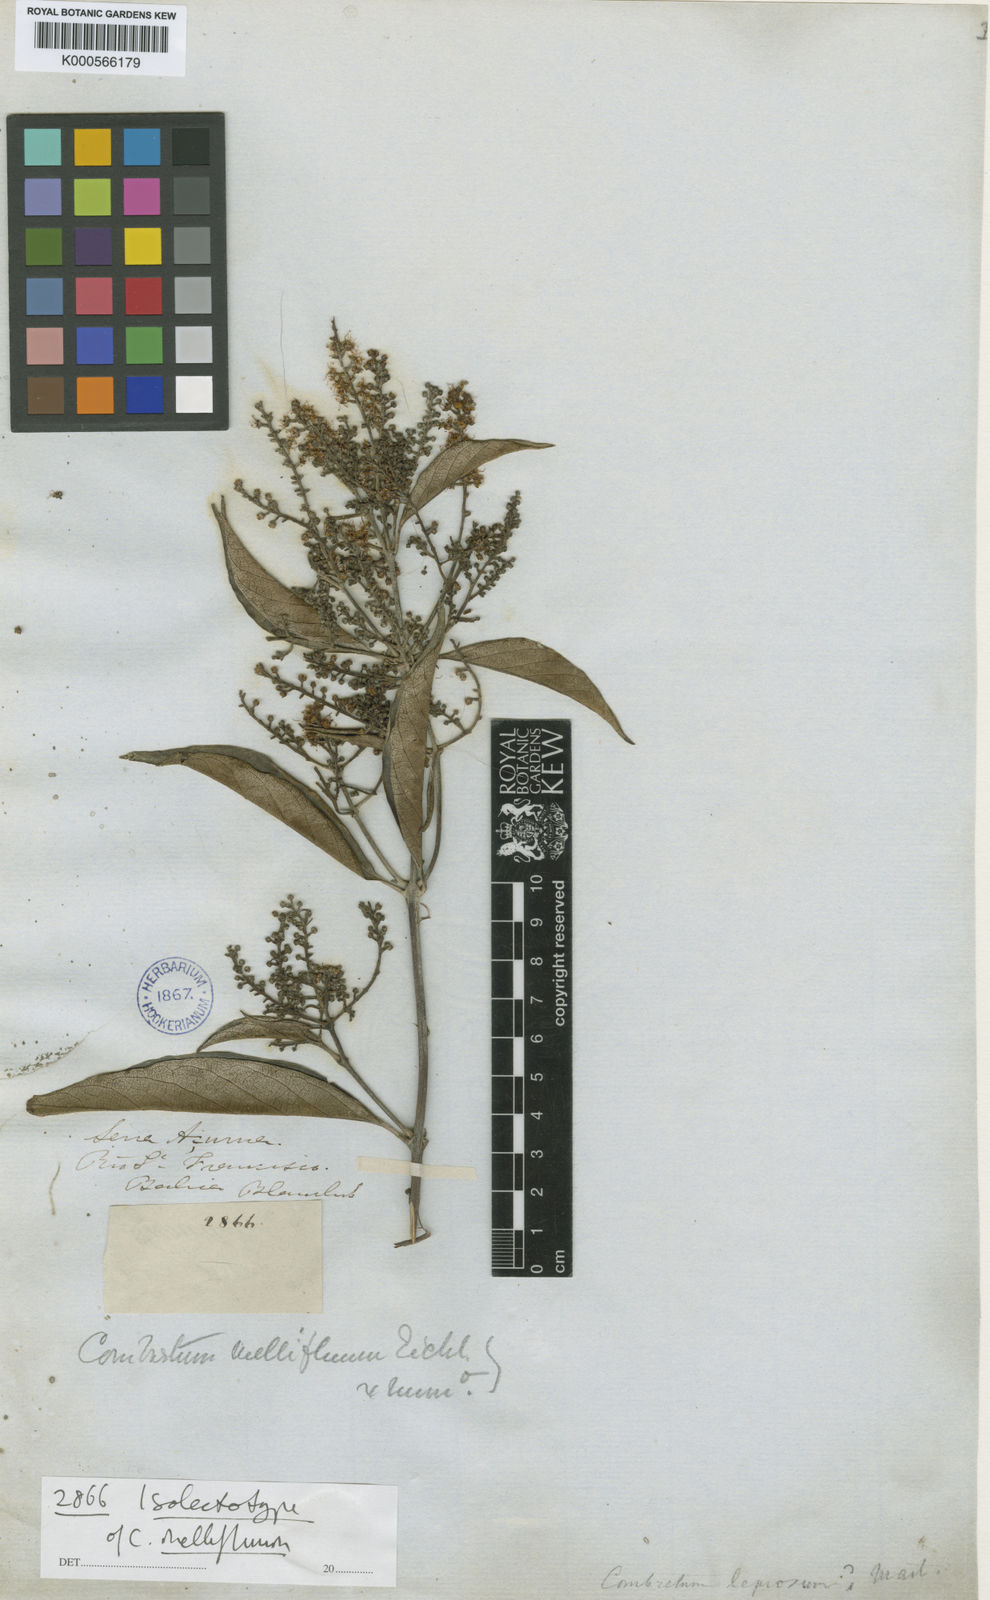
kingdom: Plantae
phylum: Tracheophyta
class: Magnoliopsida
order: Myrtales
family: Combretaceae
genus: Combretum
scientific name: Combretum mellifluum
